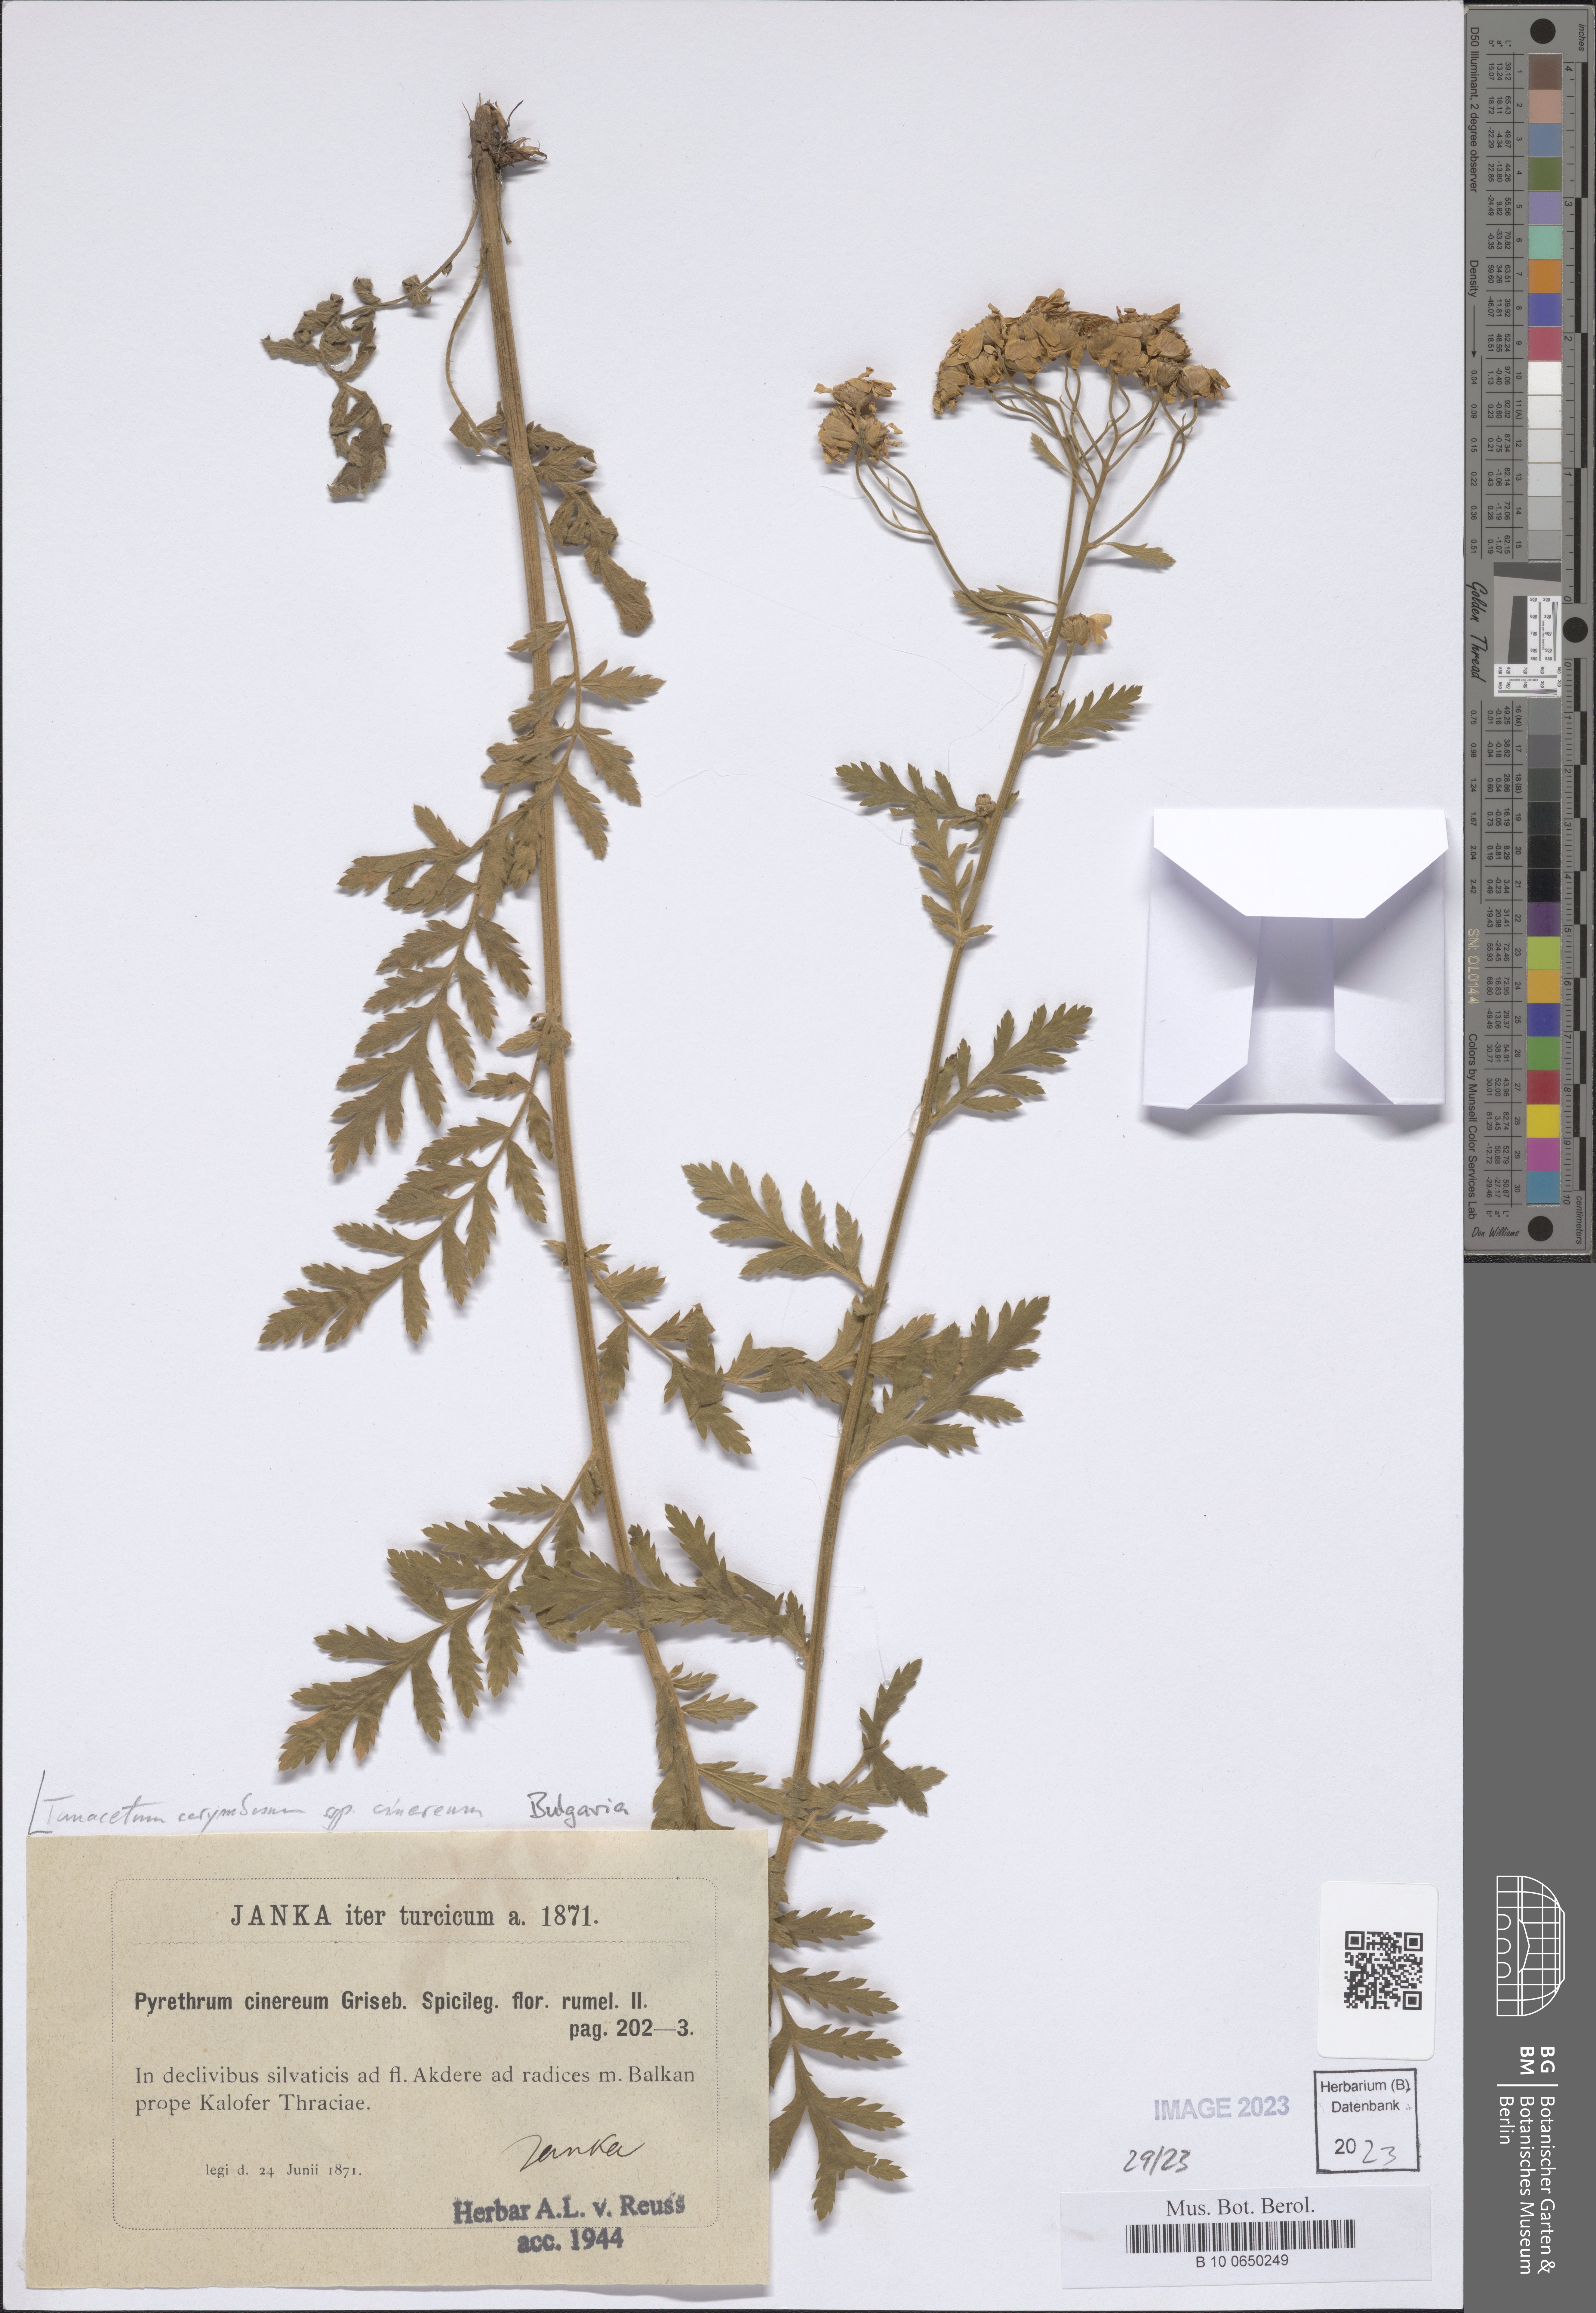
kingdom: Plantae
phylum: Tracheophyta
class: Magnoliopsida
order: Asterales
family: Asteraceae
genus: Tanacetum
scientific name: Tanacetum corymbosum
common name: Scentless feverfew
